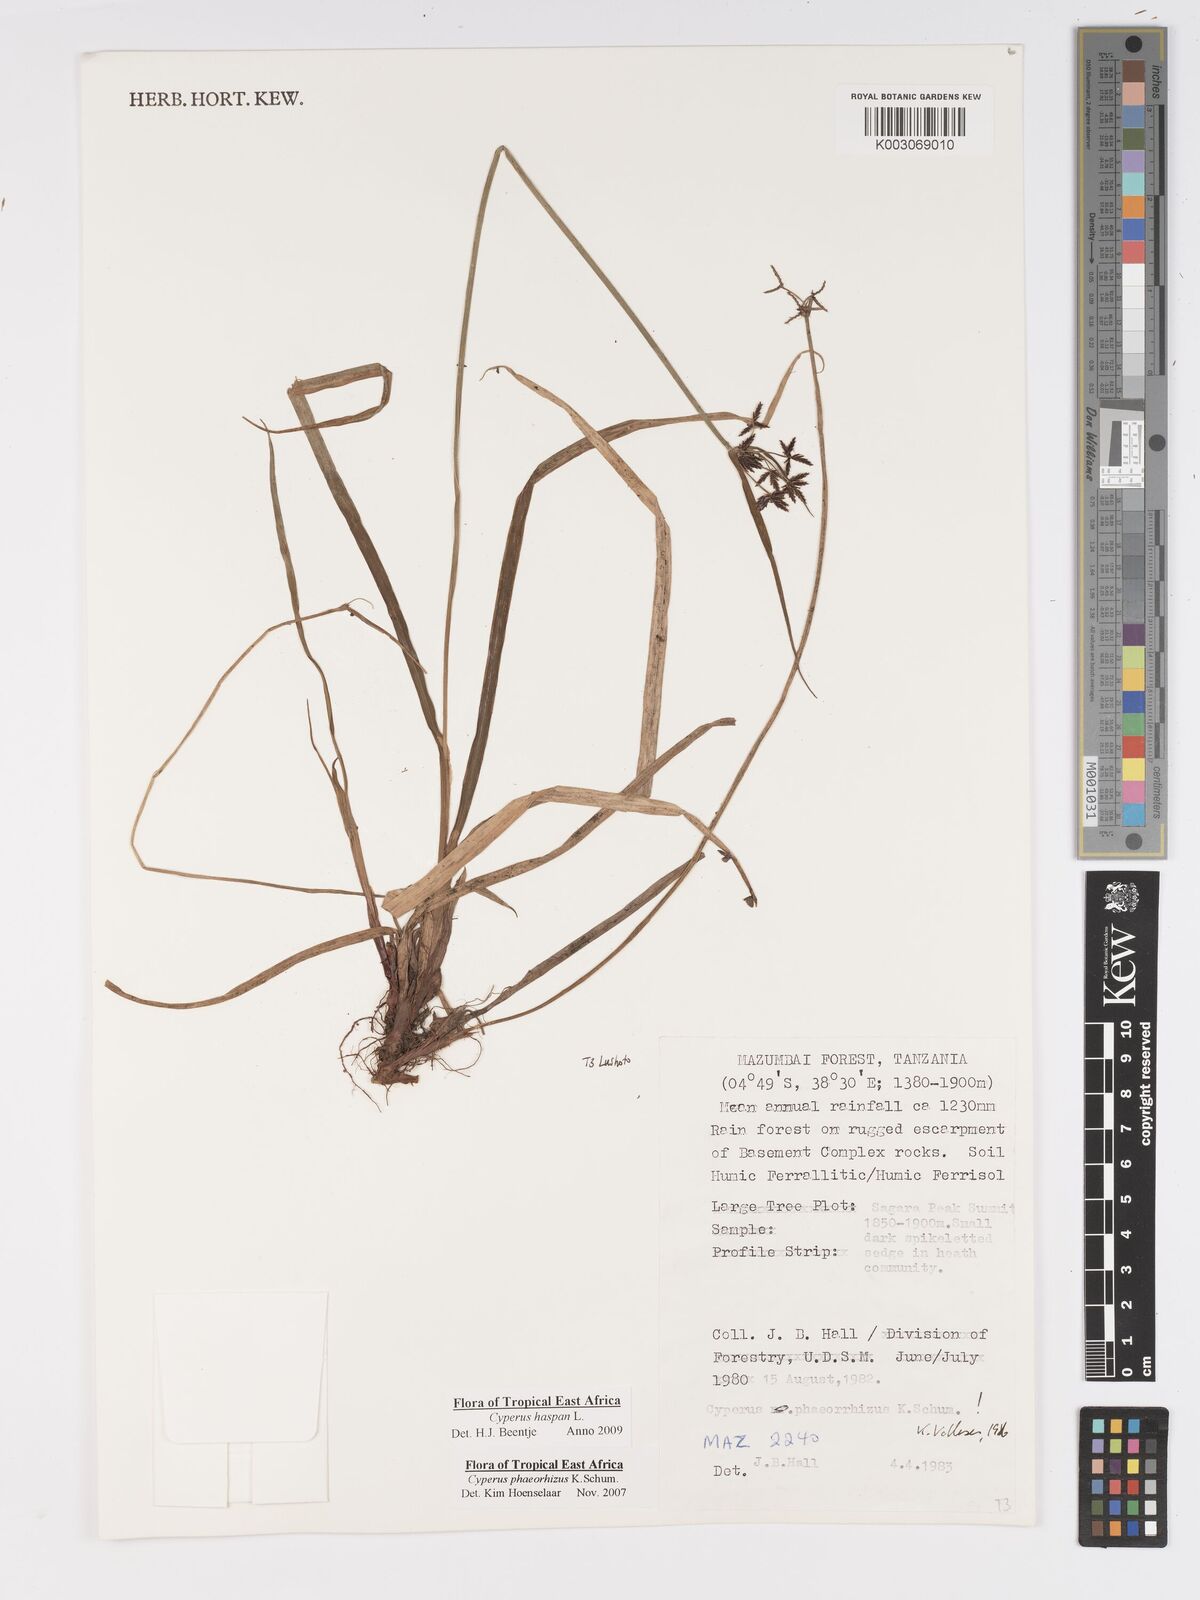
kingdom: Plantae
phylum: Tracheophyta
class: Liliopsida
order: Poales
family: Cyperaceae
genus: Cyperus
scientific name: Cyperus haspan
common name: Haspan flatsedge
